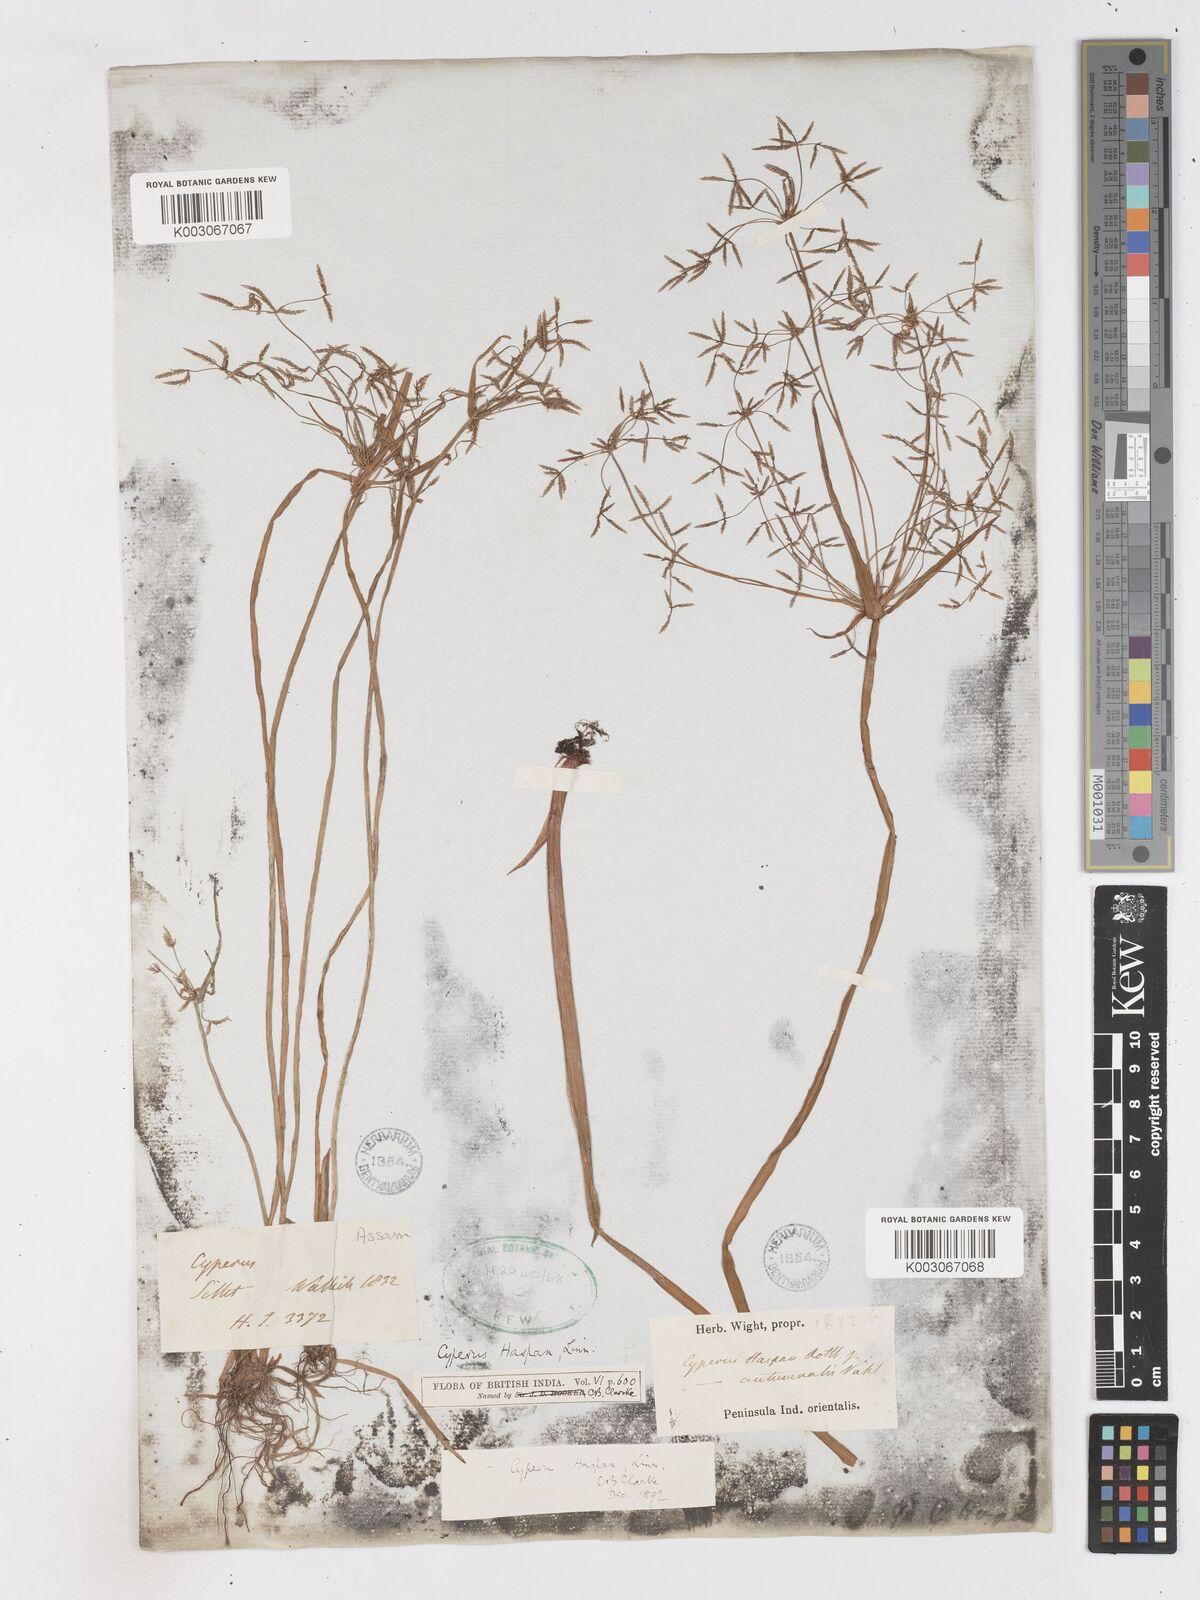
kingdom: Plantae
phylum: Tracheophyta
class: Liliopsida
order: Poales
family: Cyperaceae
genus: Cyperus
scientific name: Cyperus haspan
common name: Haspan flatsedge
